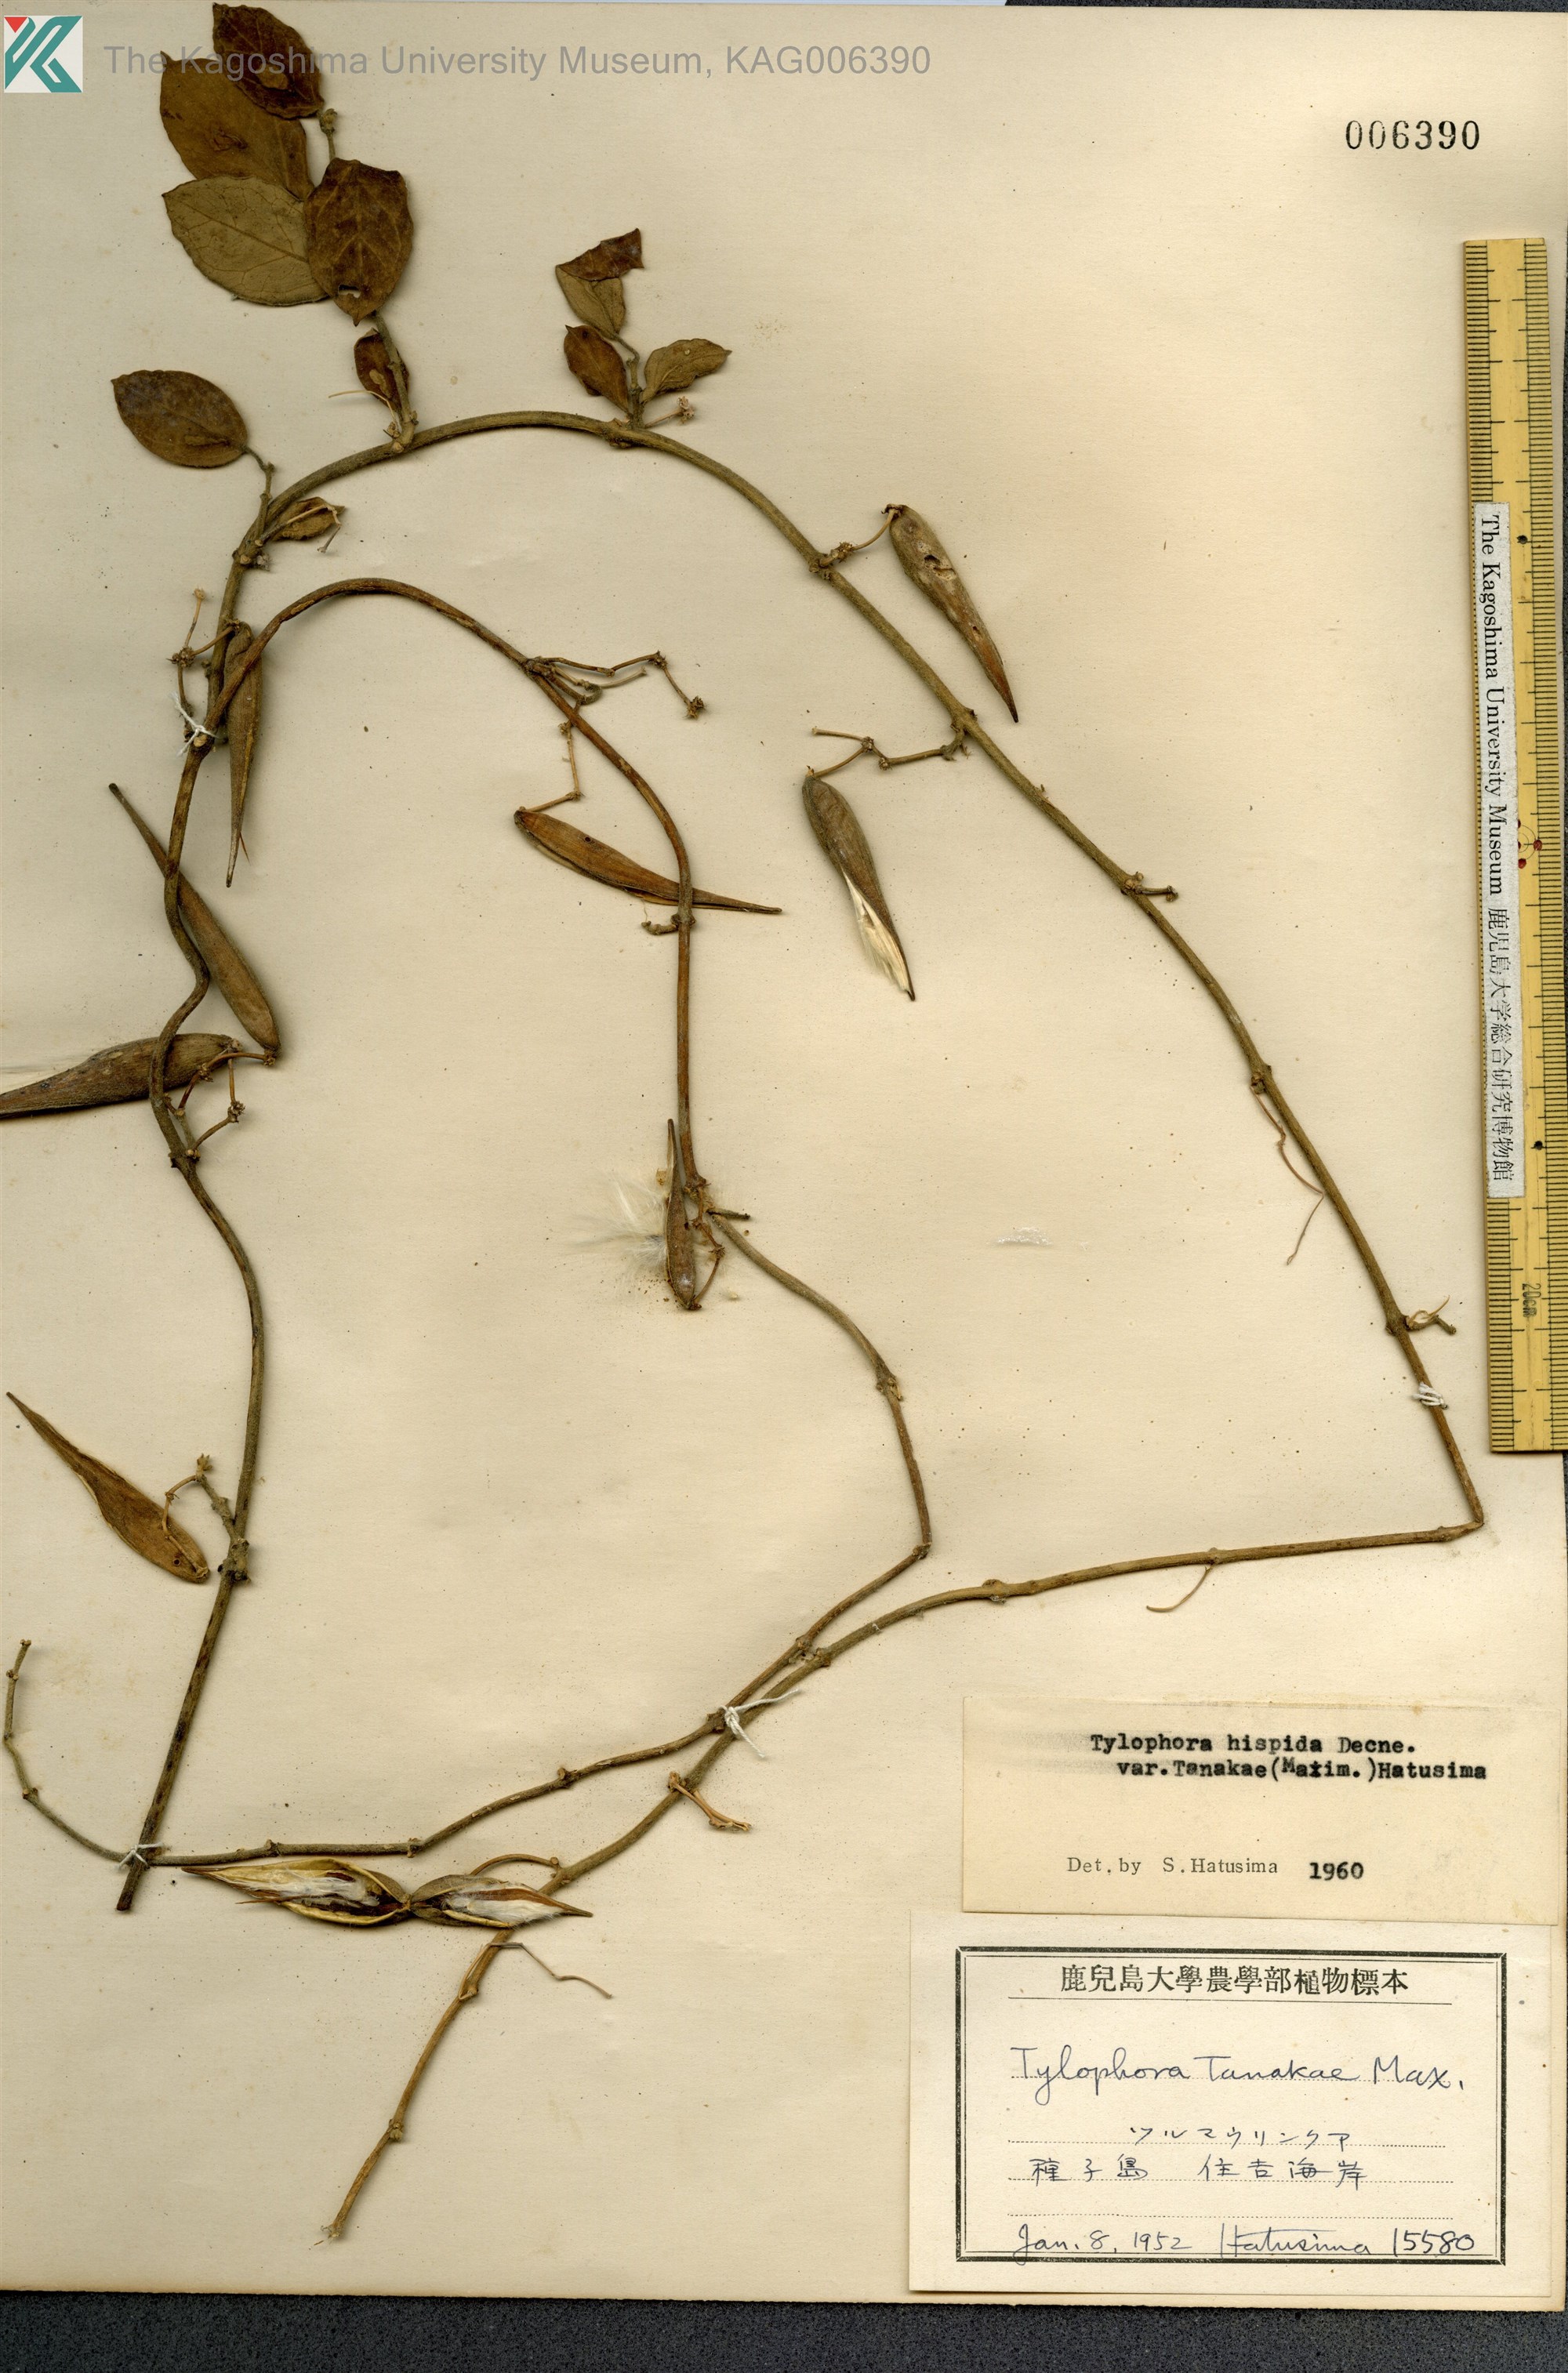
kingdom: Plantae
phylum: Tracheophyta
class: Magnoliopsida
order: Gentianales
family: Apocynaceae
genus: Vincetoxicum
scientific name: Vincetoxicum Tylophora tanakae
